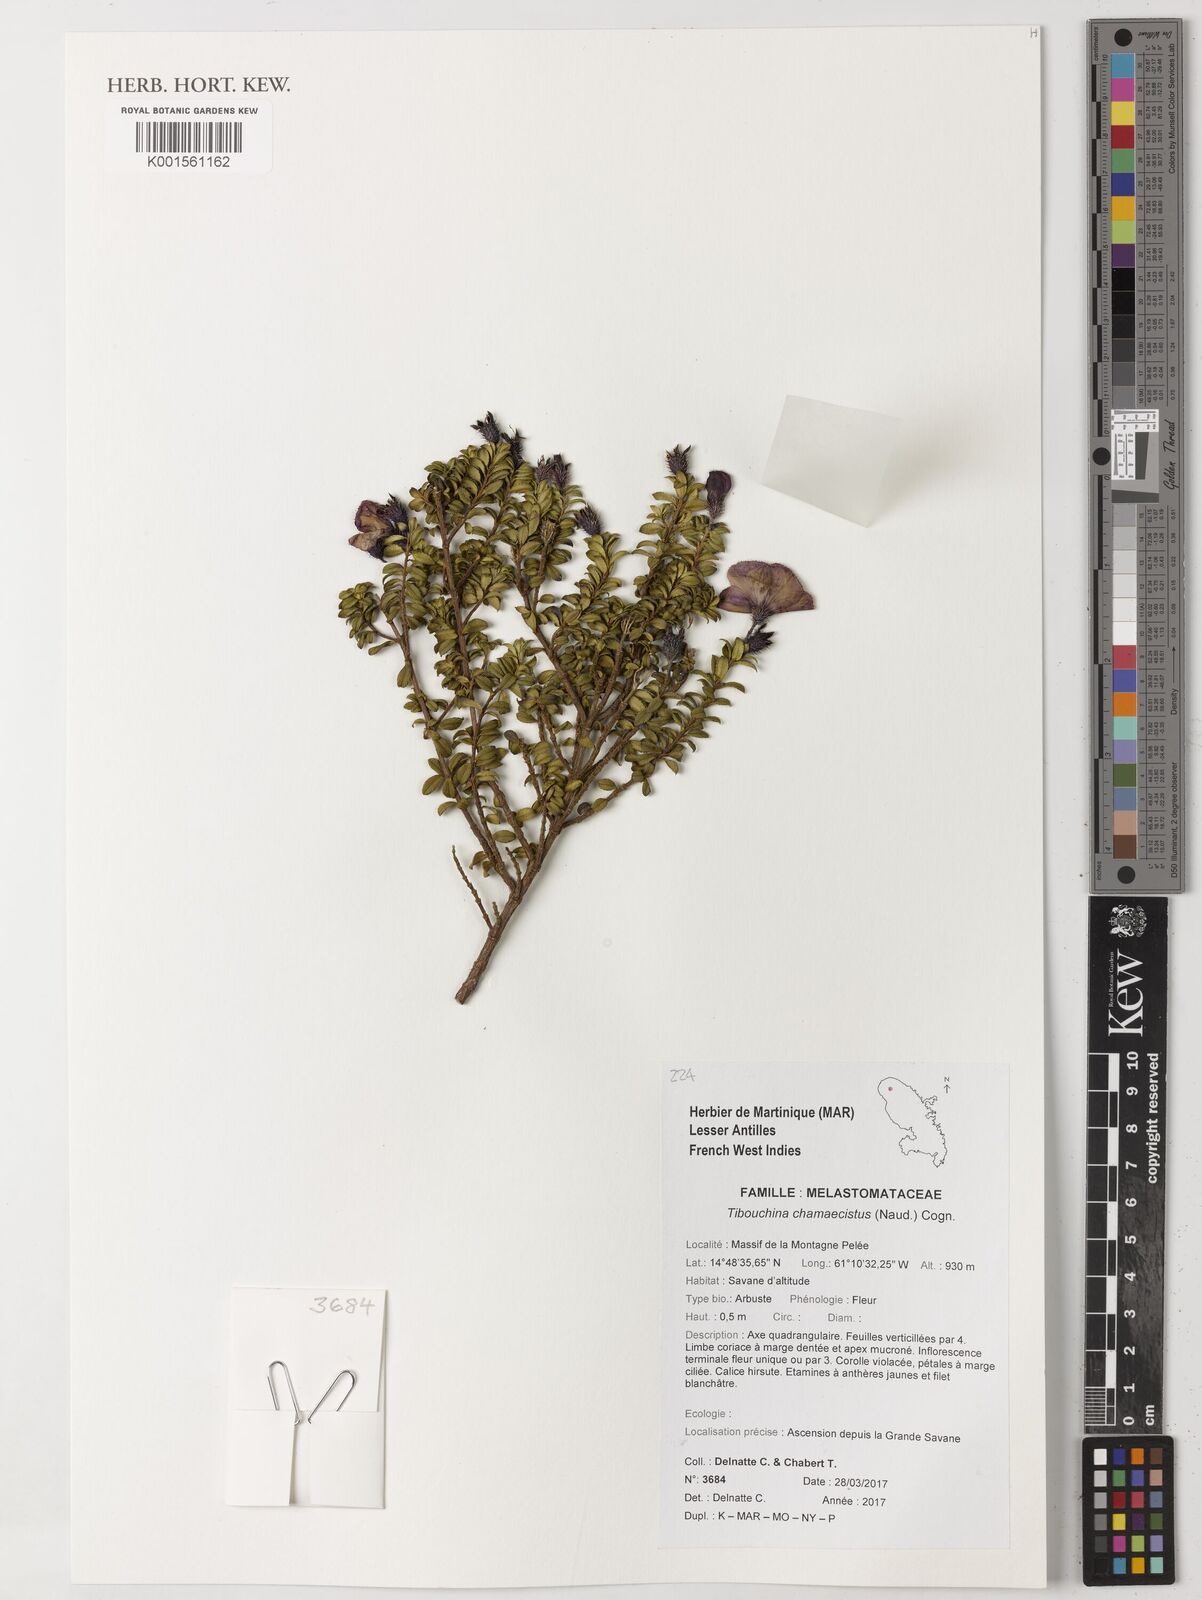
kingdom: Plantae
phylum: Tracheophyta
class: Magnoliopsida
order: Myrtales
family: Melastomataceae
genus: Chaetogastra
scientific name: Chaetogastra chamaecistus
